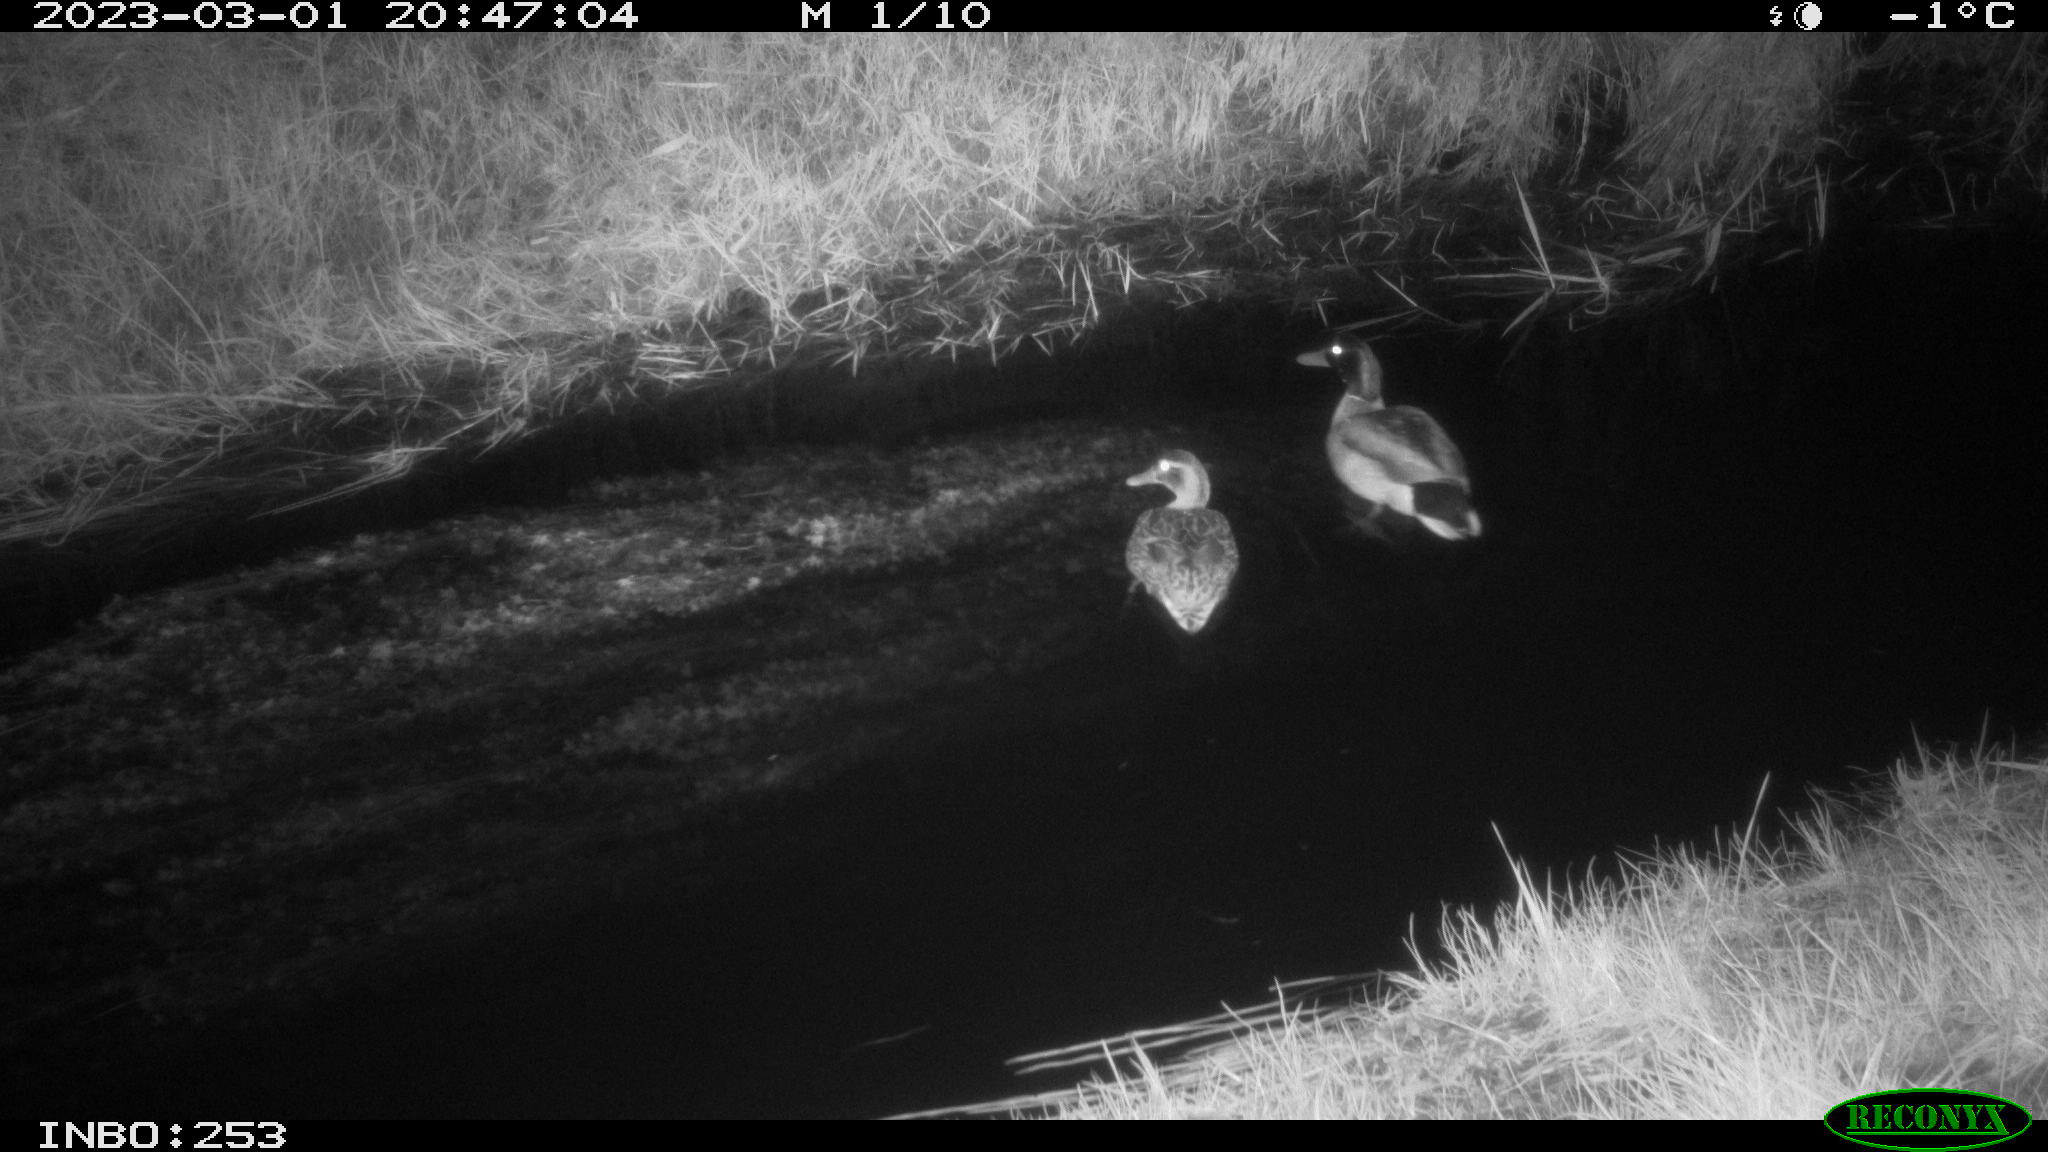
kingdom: Animalia
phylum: Chordata
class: Aves
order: Anseriformes
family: Anatidae
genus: Anas
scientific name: Anas
